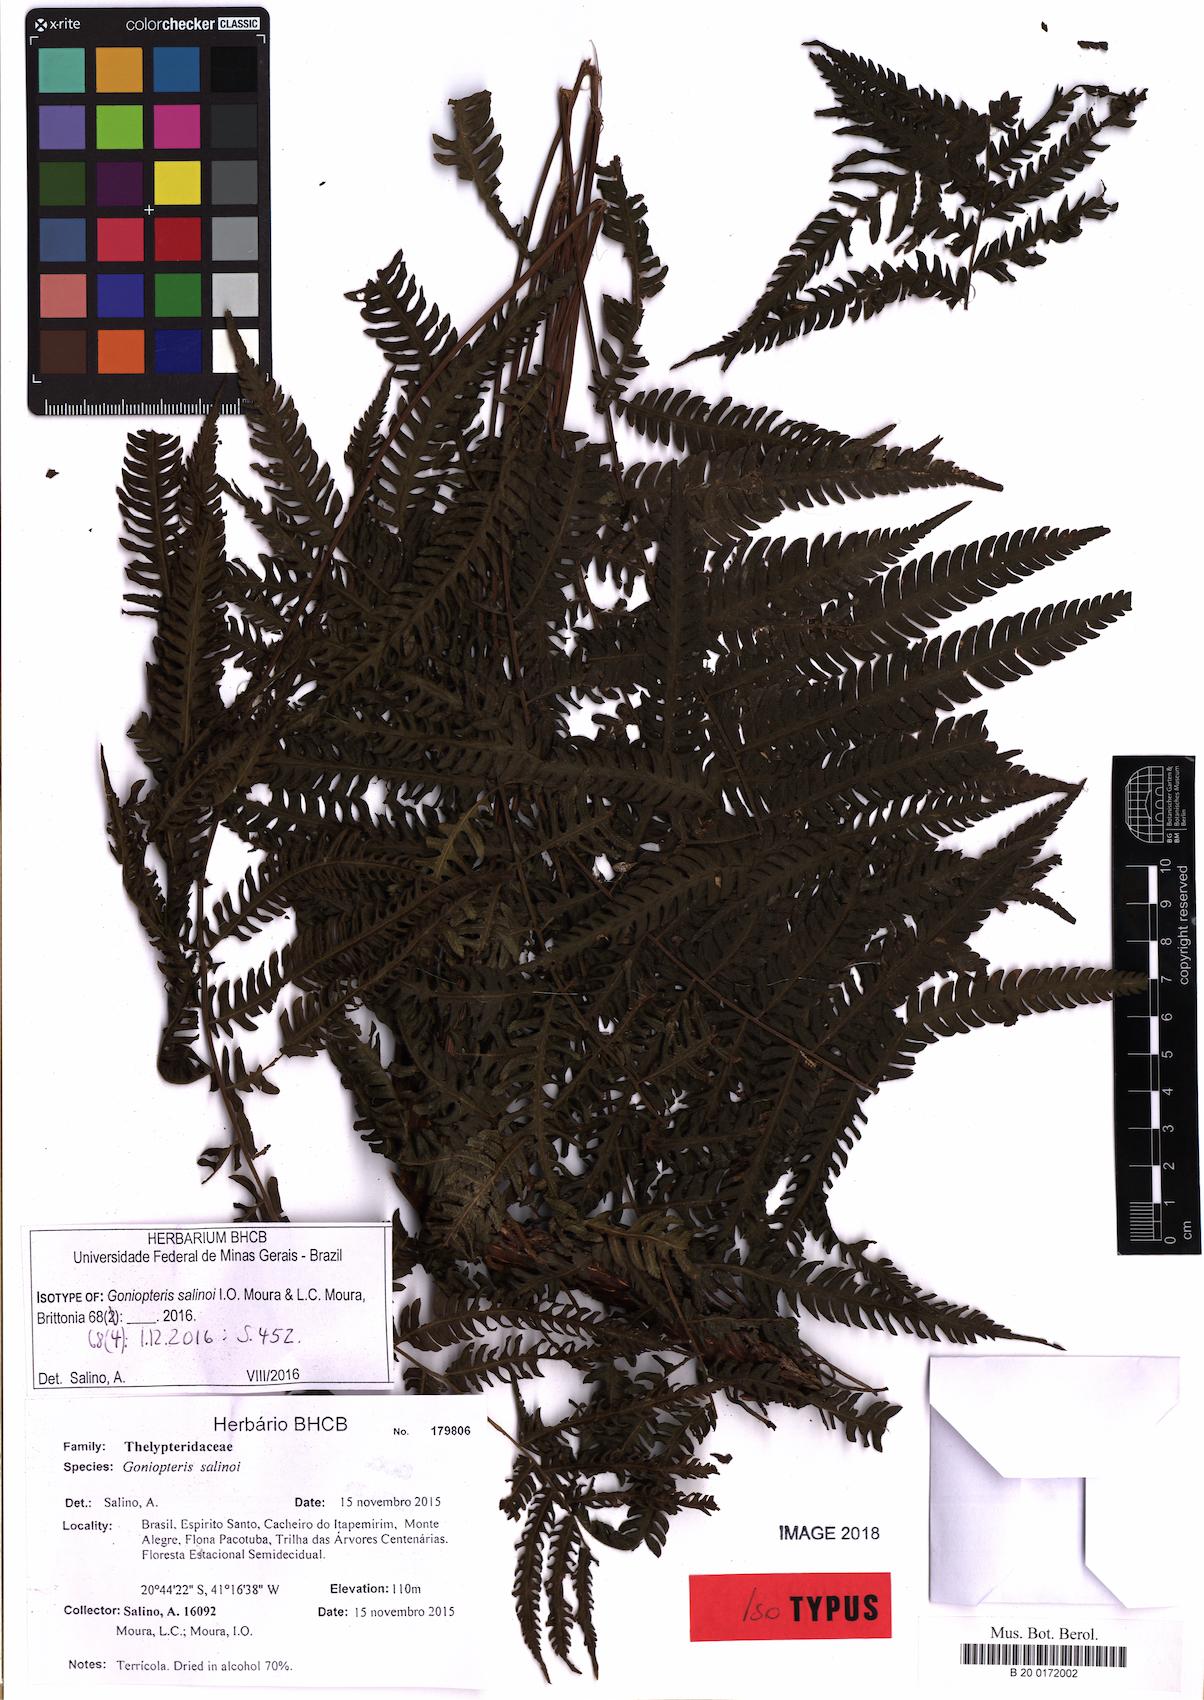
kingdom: Plantae
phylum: Tracheophyta
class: Polypodiopsida
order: Polypodiales
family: Thelypteridaceae
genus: Goniopteris
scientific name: Goniopteris salinoi
